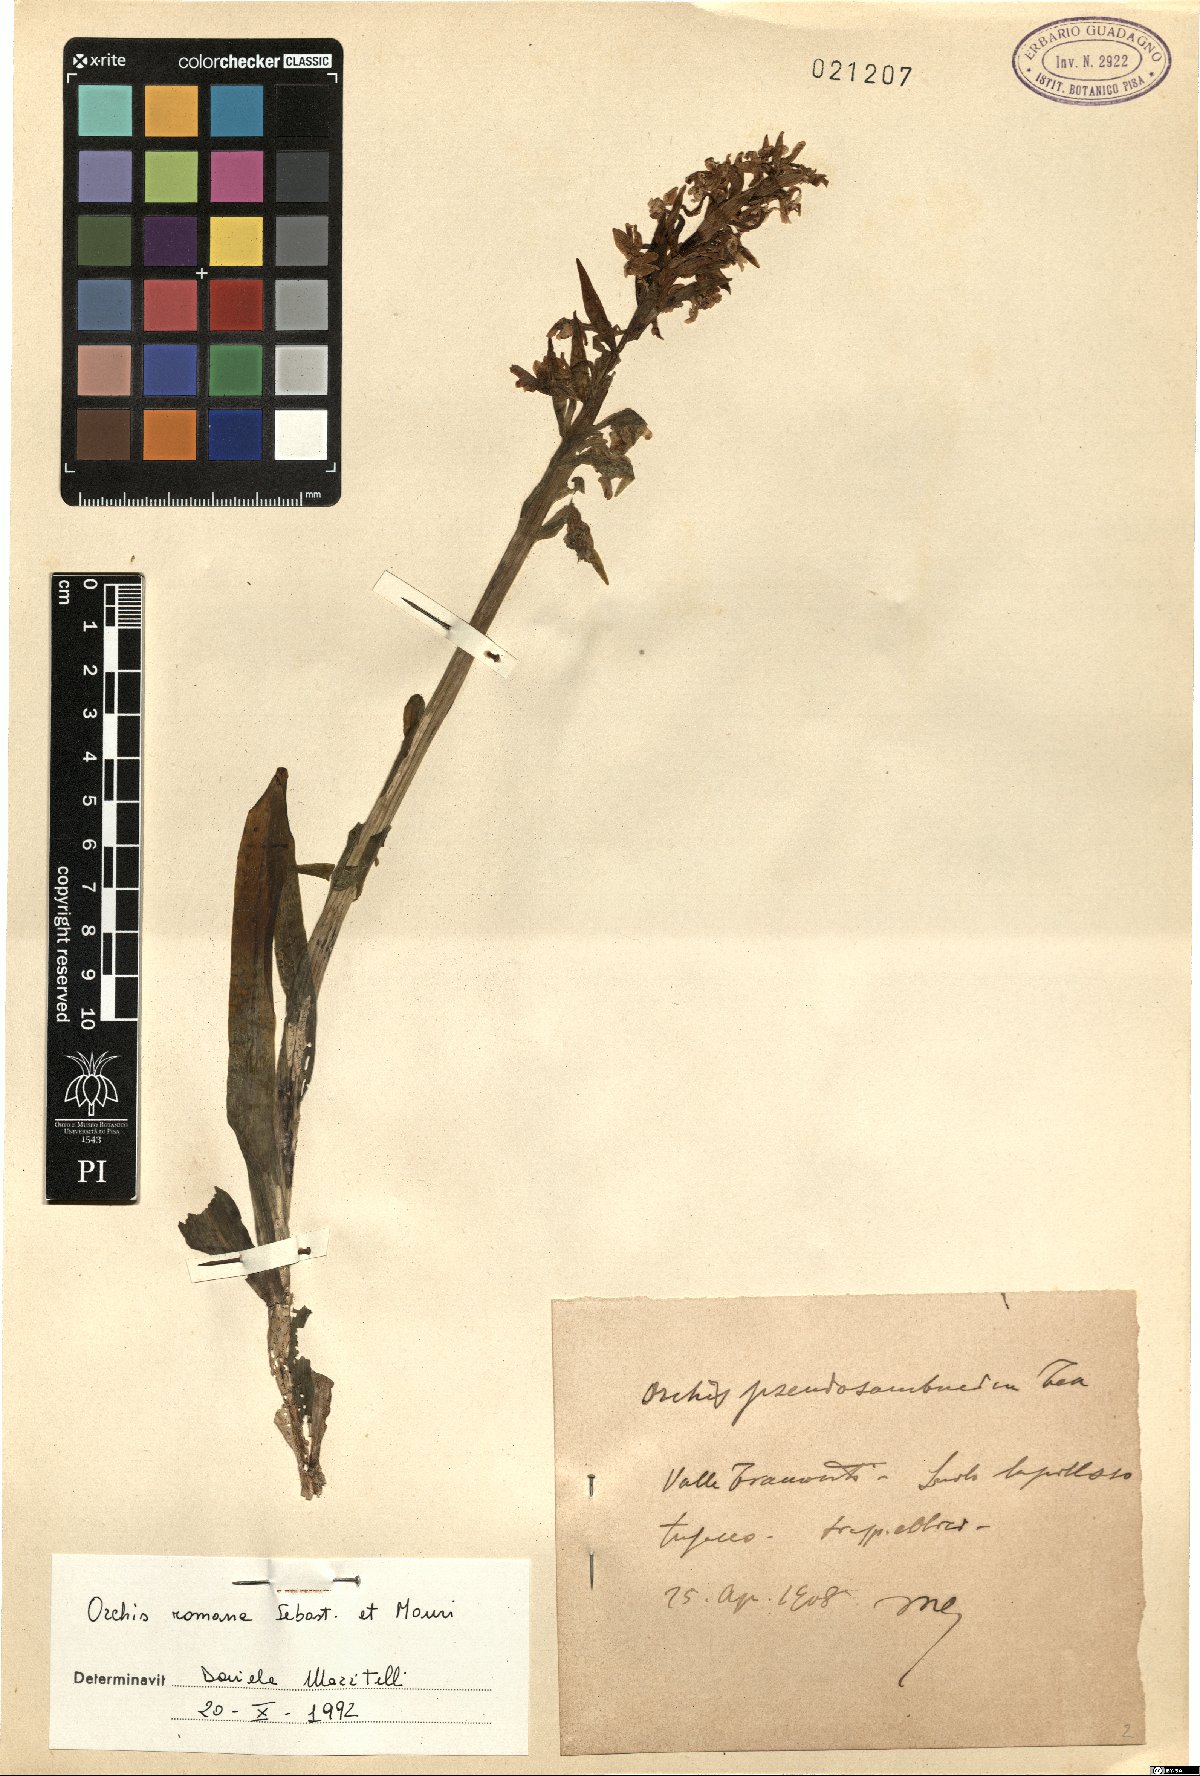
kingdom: Plantae
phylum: Tracheophyta
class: Liliopsida
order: Asparagales
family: Orchidaceae
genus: Dactylorhiza
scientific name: Dactylorhiza romana
